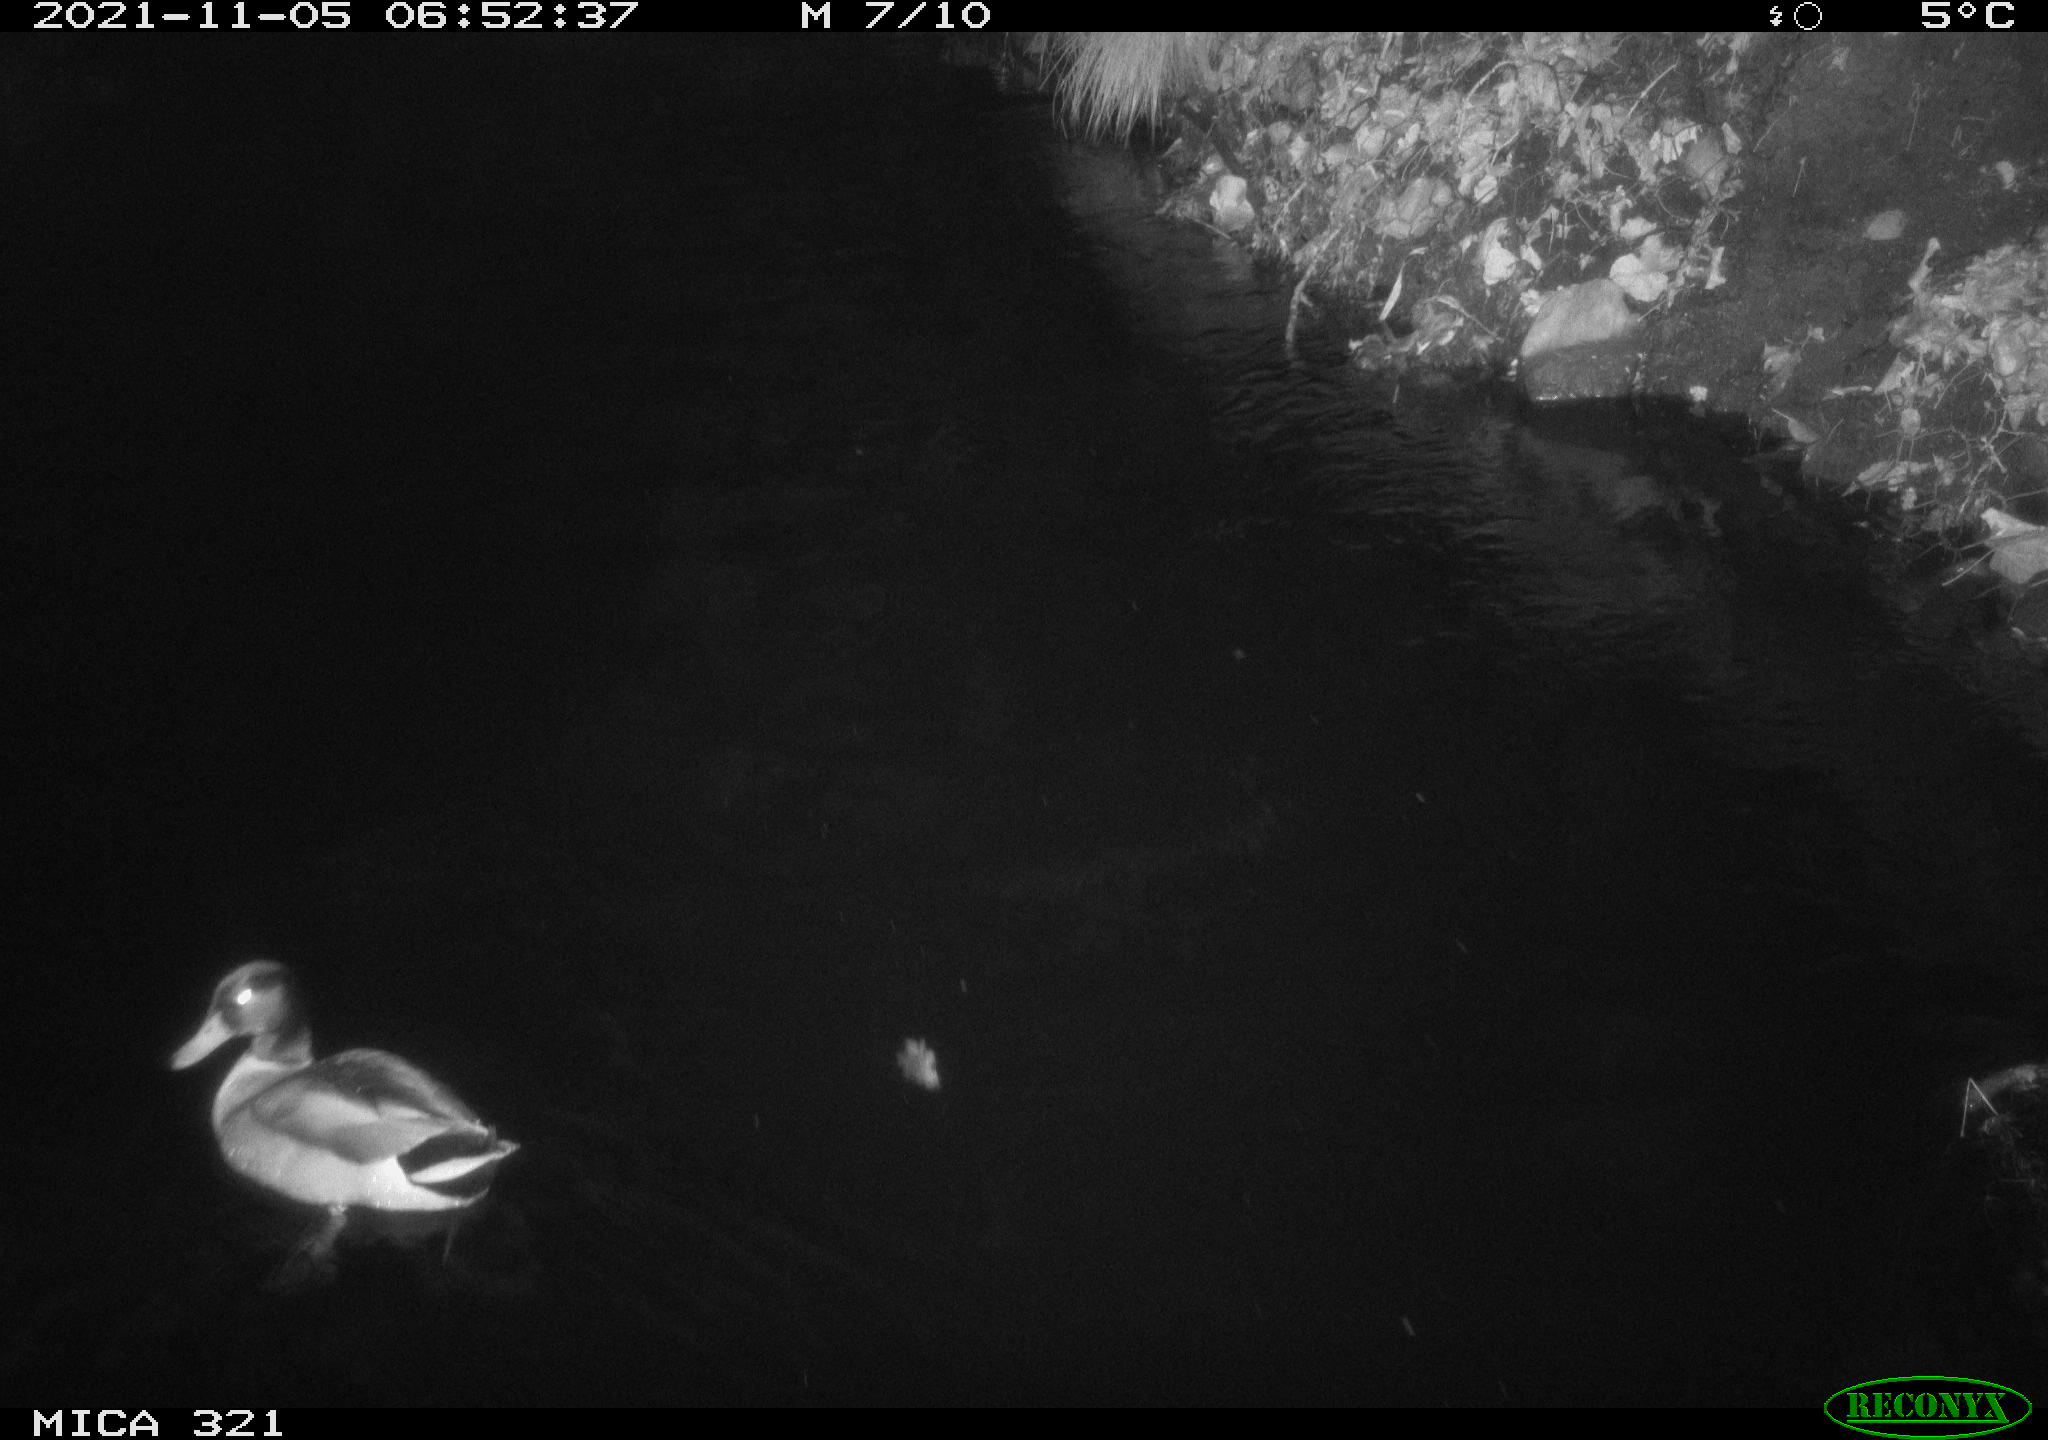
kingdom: Animalia
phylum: Chordata
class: Aves
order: Anseriformes
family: Anatidae
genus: Anas
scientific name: Anas platyrhynchos
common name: Mallard
